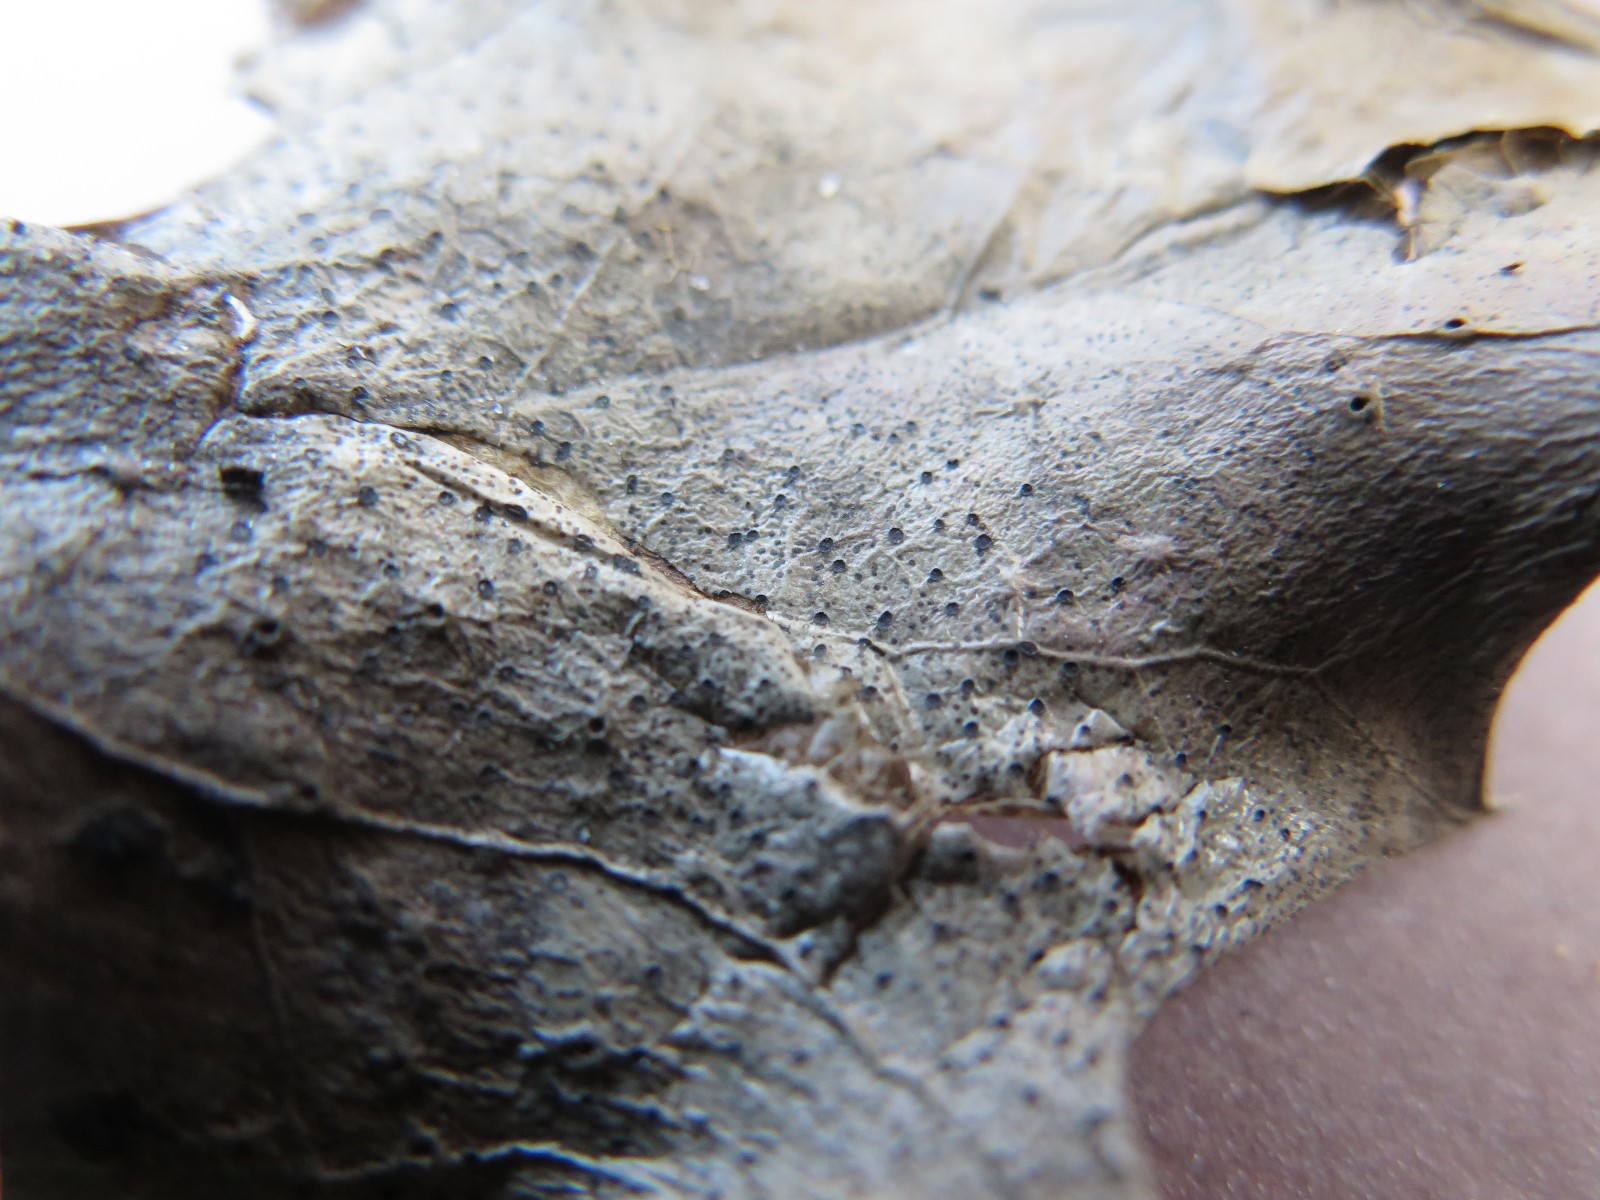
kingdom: Fungi
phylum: Ascomycota
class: Leotiomycetes
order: Helotiales
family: Cenangiaceae
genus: Trochila
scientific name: Trochila ilicina
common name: kristtorn-lågskive
